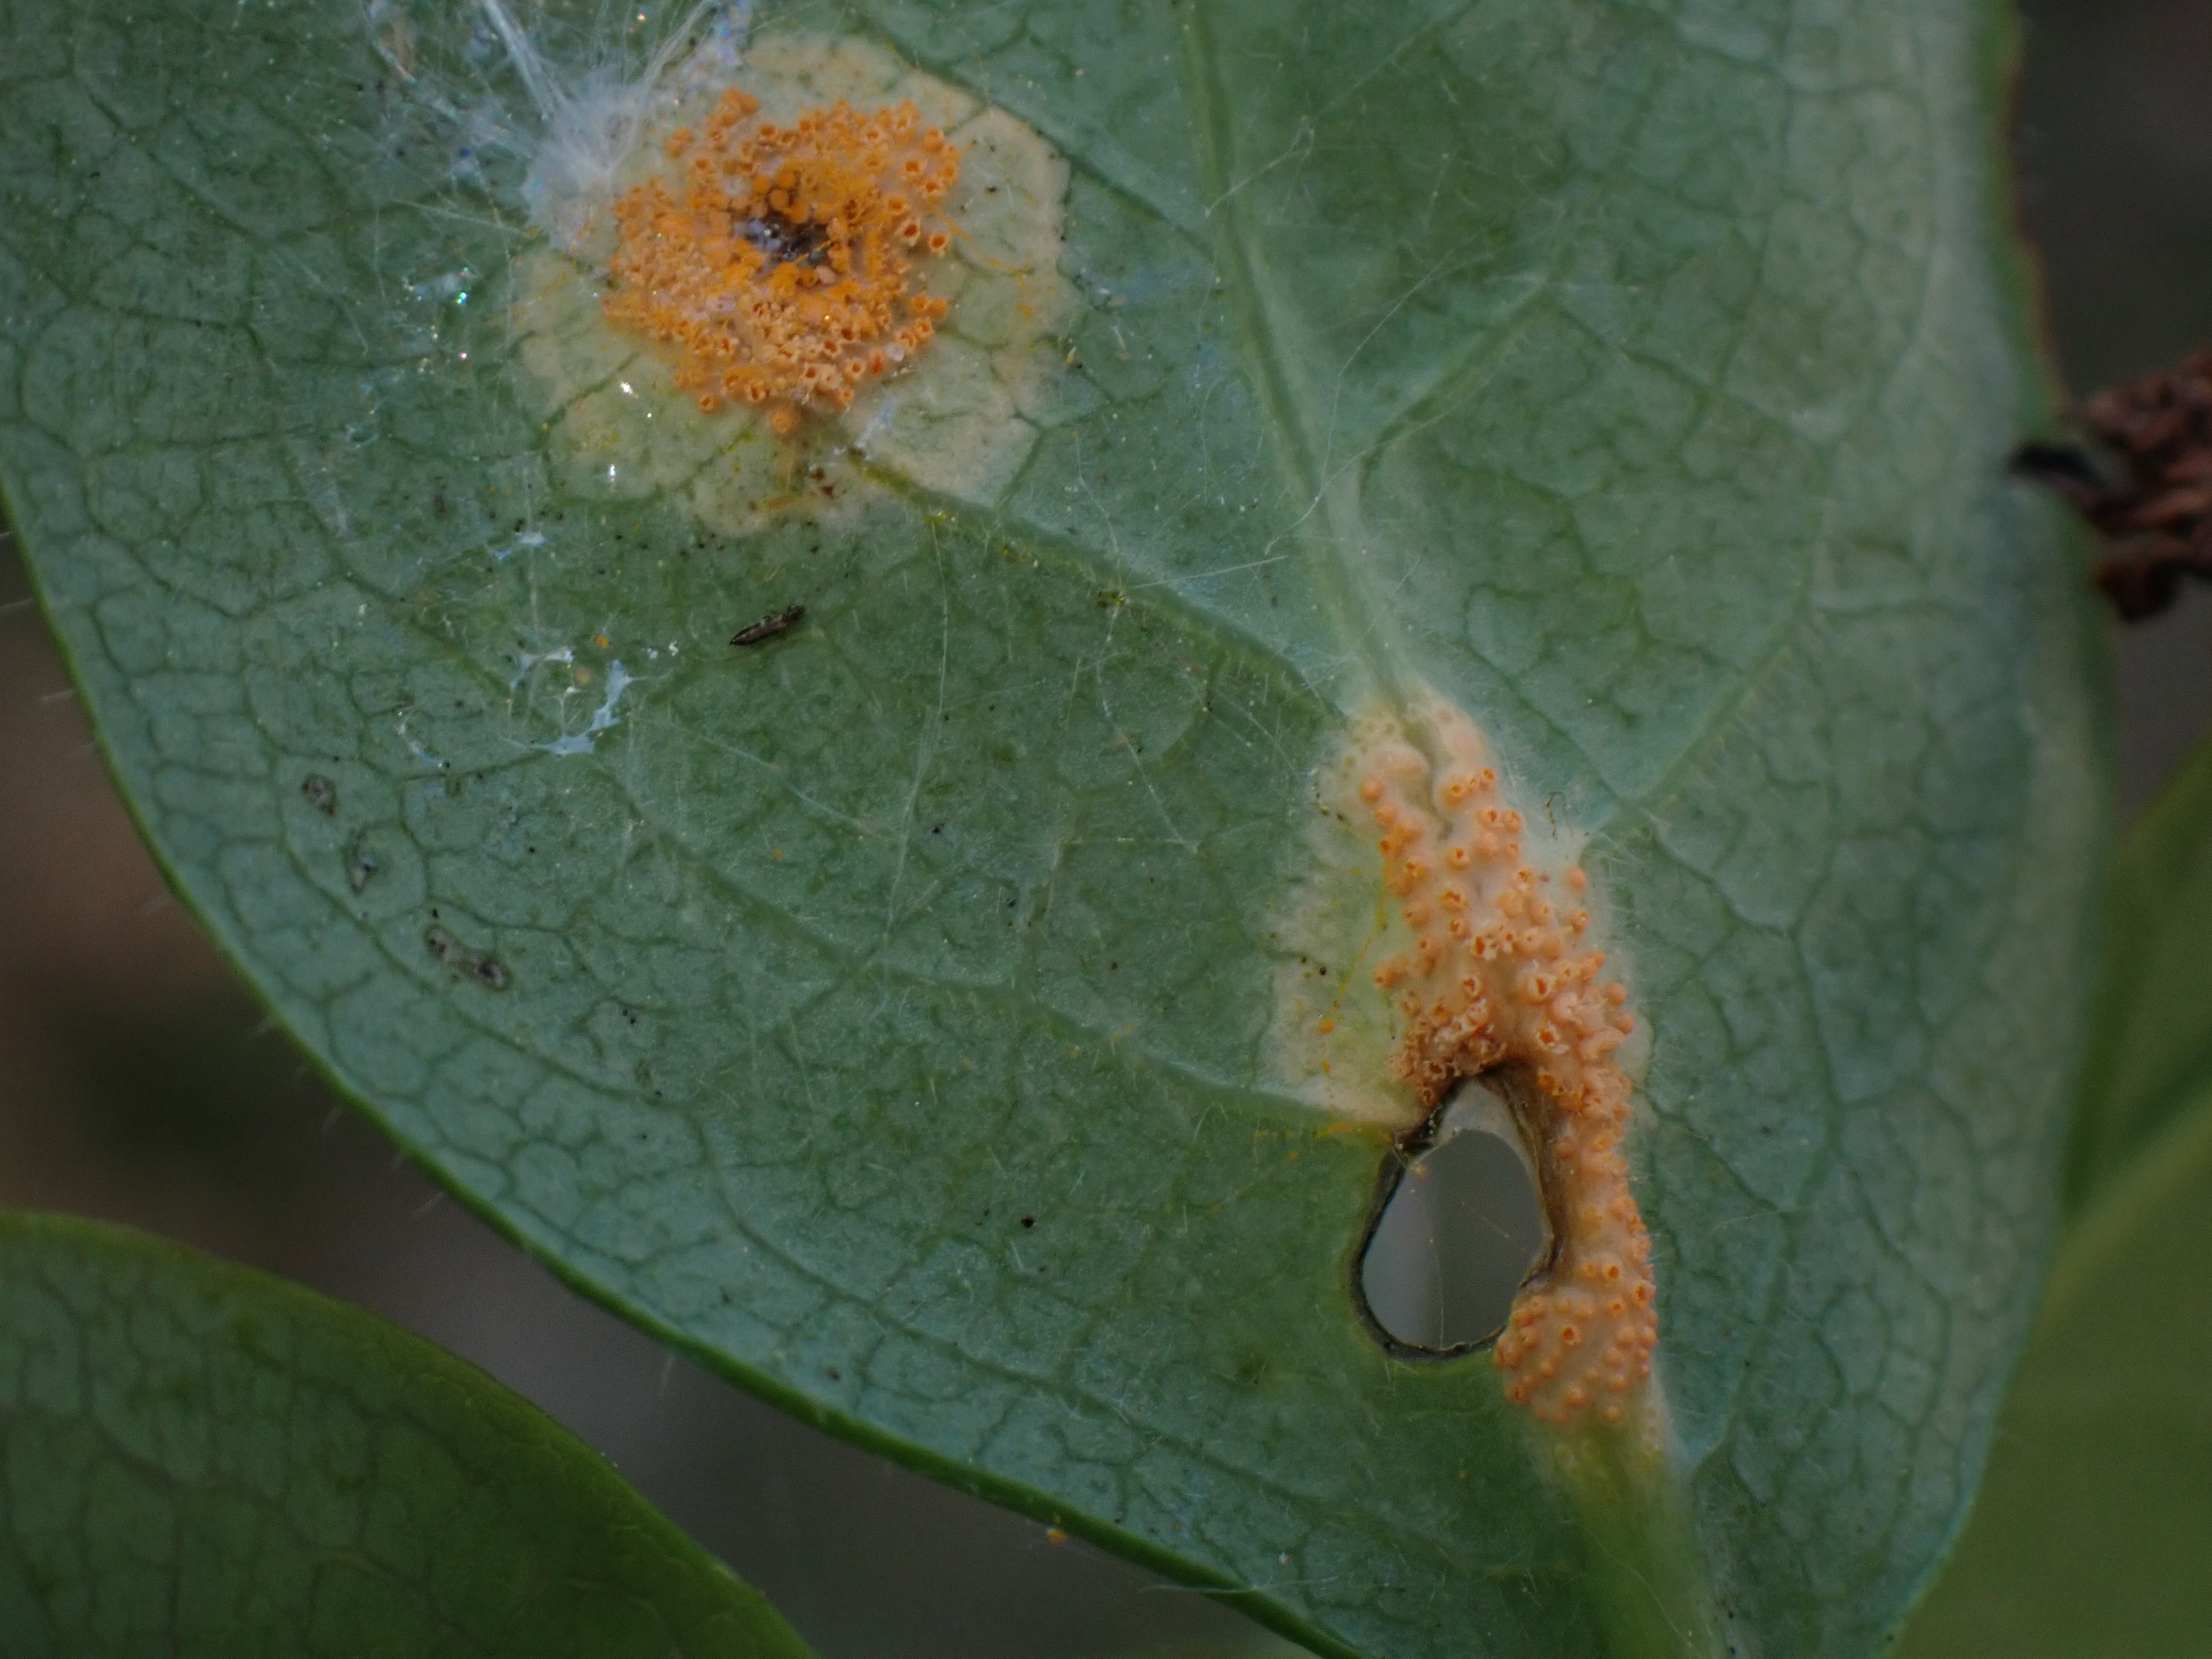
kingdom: Fungi
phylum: Basidiomycota
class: Pucciniomycetes
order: Pucciniales
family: Pucciniaceae
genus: Puccinia
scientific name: Puccinia festucae
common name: Gedeblad-tvecellerust
